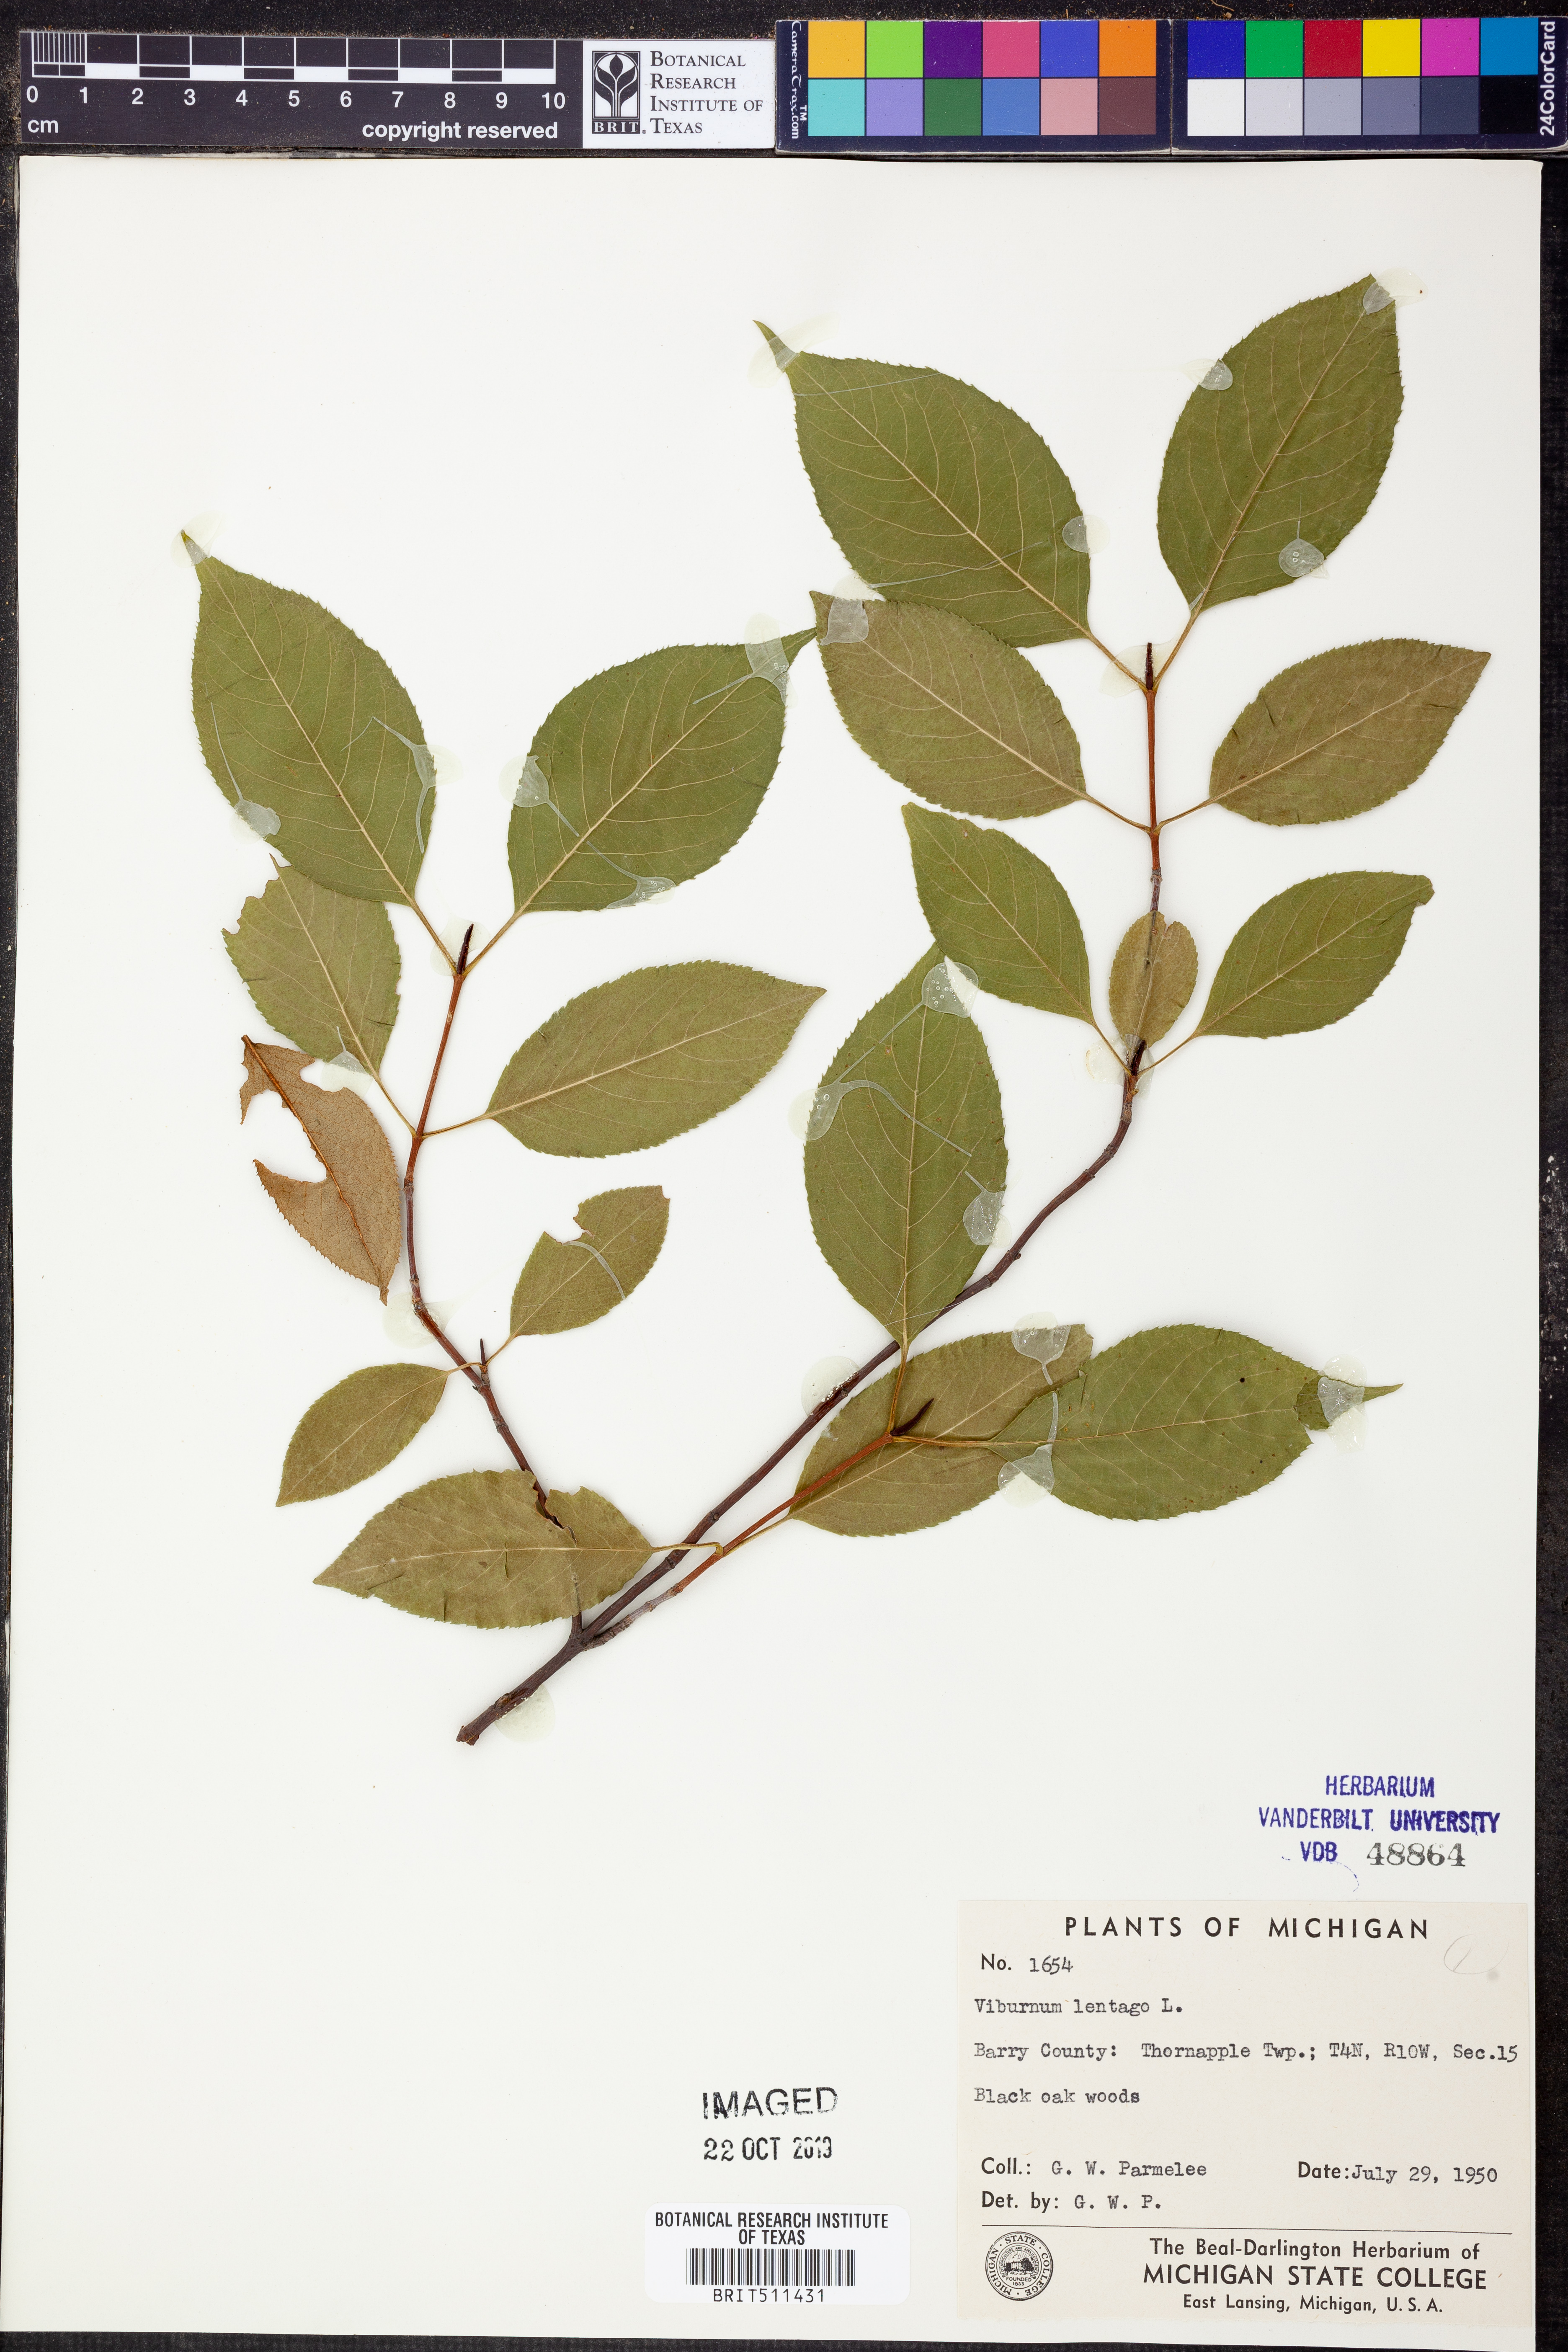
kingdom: Plantae
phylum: Tracheophyta
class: Magnoliopsida
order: Dipsacales
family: Viburnaceae
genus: Viburnum
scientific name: Viburnum lentago
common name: Black haw
